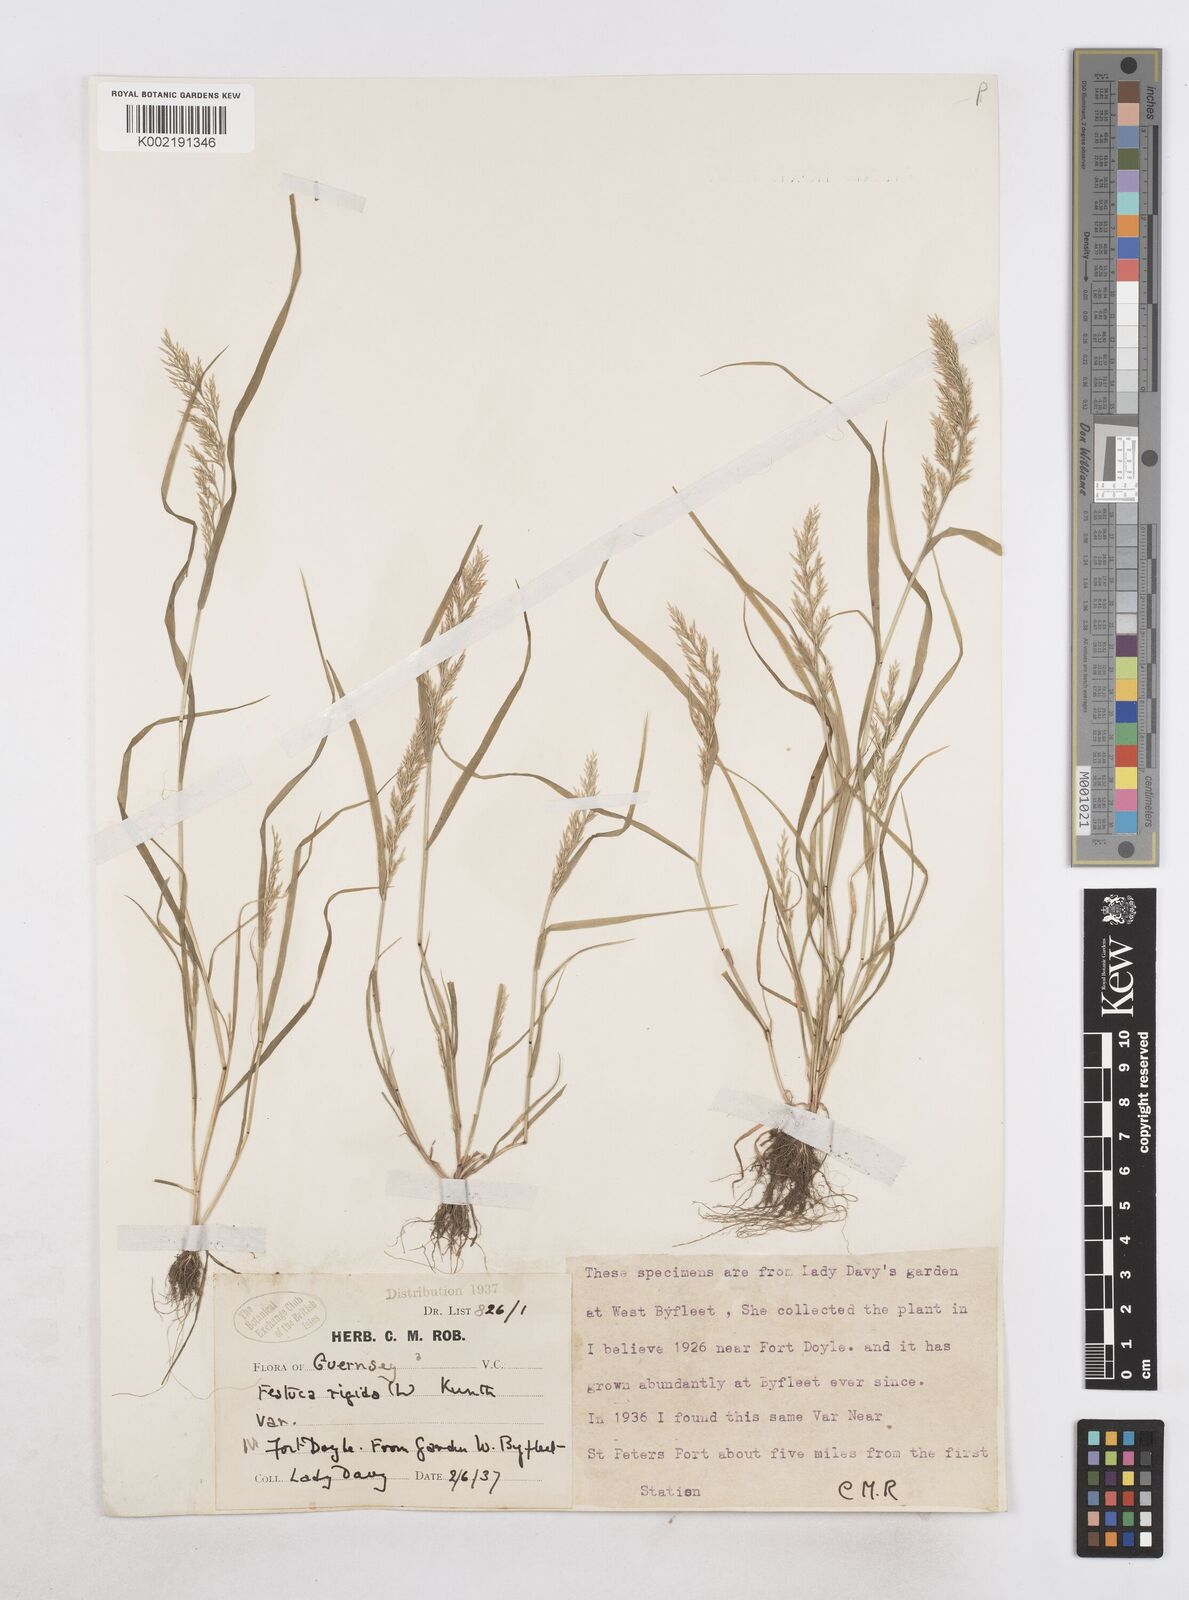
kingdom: Plantae
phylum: Tracheophyta
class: Liliopsida
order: Poales
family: Poaceae
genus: Catapodium
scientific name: Catapodium rigidum
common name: Fern-grass
